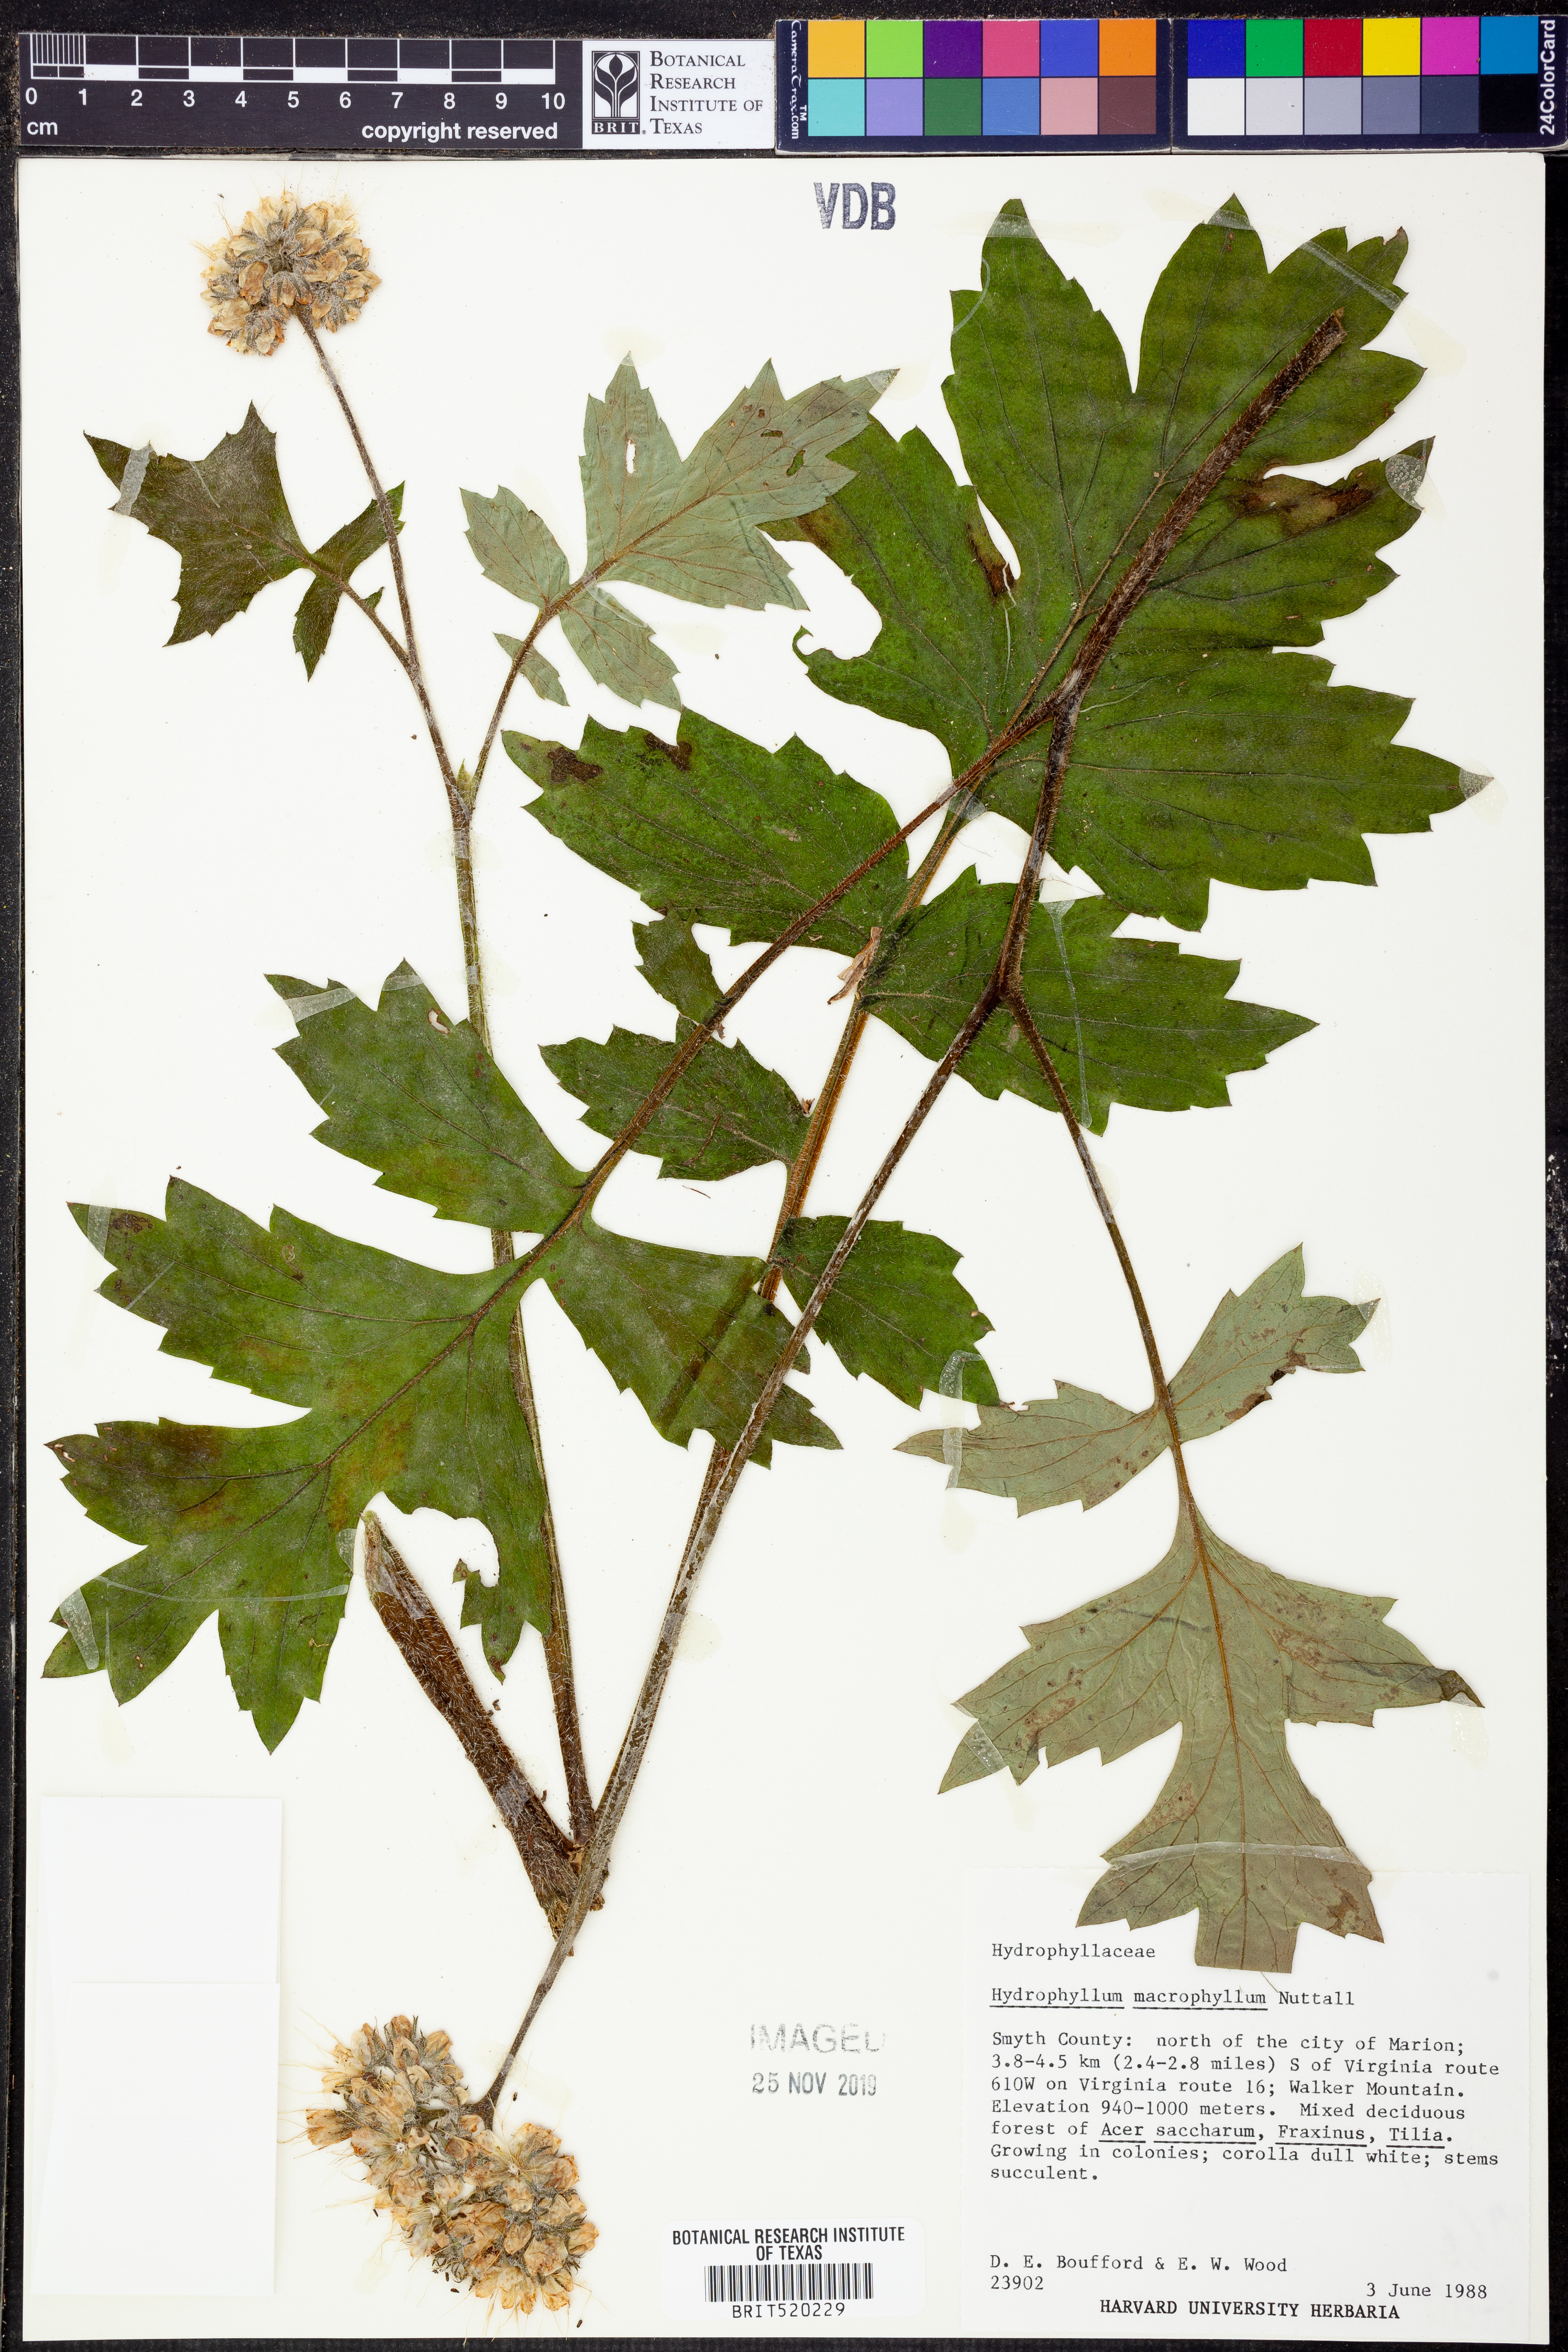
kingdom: Plantae
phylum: Tracheophyta
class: Magnoliopsida
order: Boraginales
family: Hydrophyllaceae
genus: Hydrophyllum
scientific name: Hydrophyllum macrophyllum
